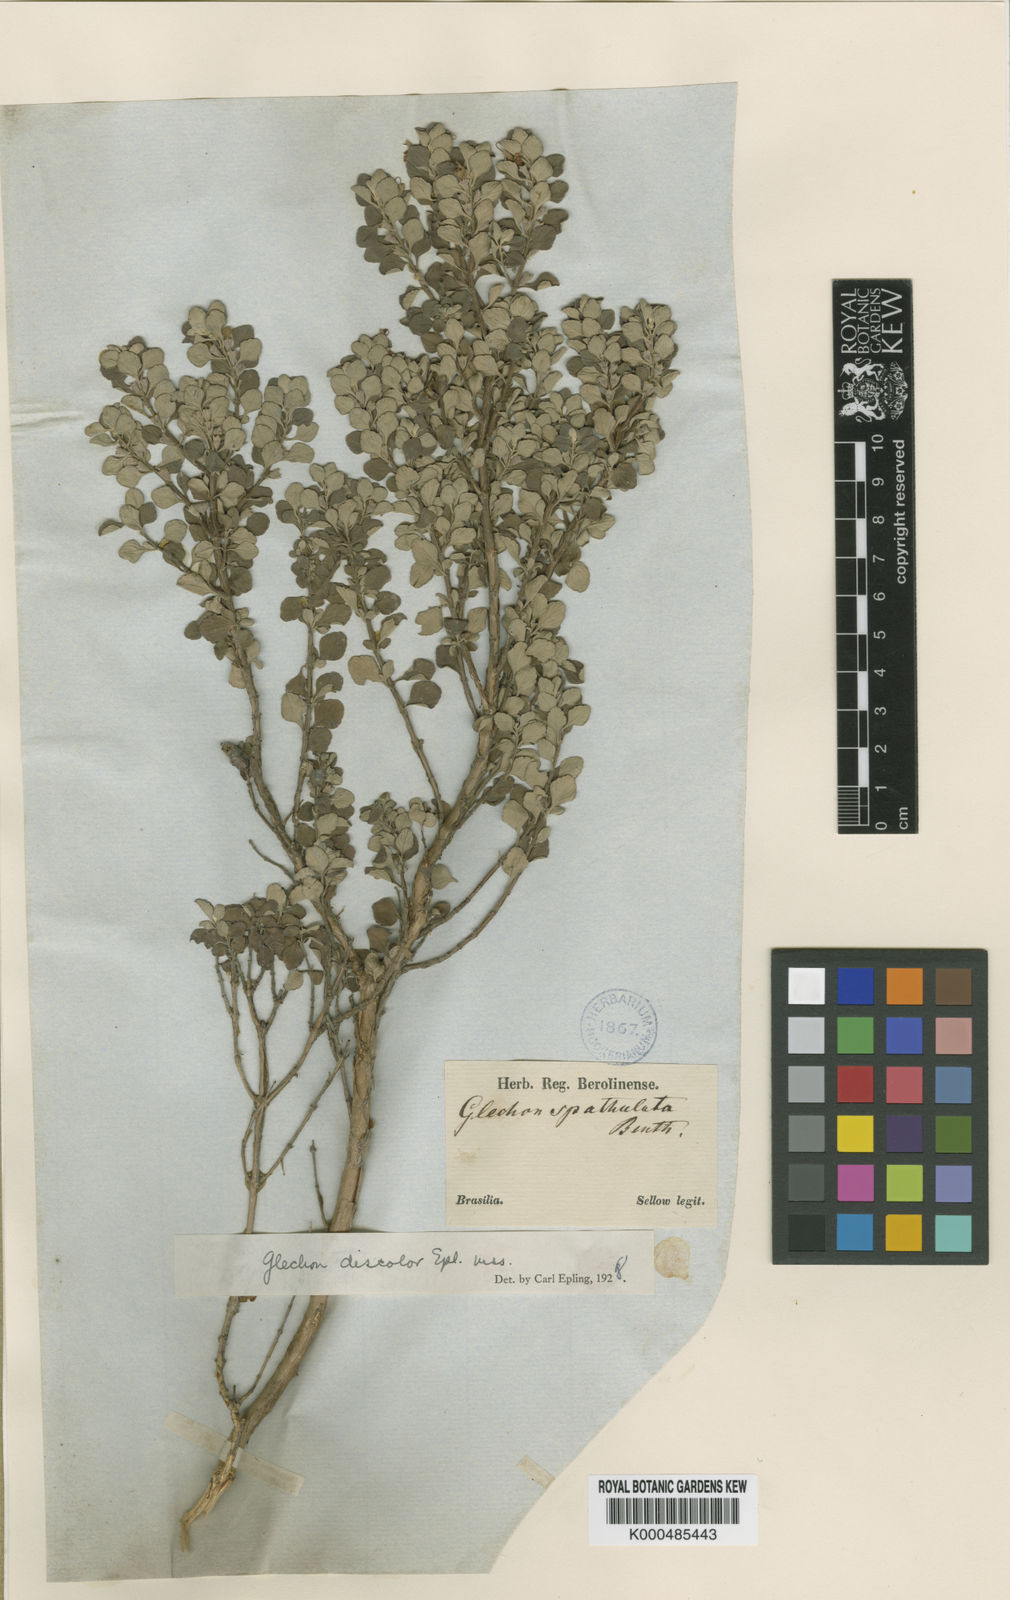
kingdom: Plantae
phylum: Tracheophyta
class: Magnoliopsida
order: Lamiales
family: Lamiaceae
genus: Glechon
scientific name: Glechon discolor
